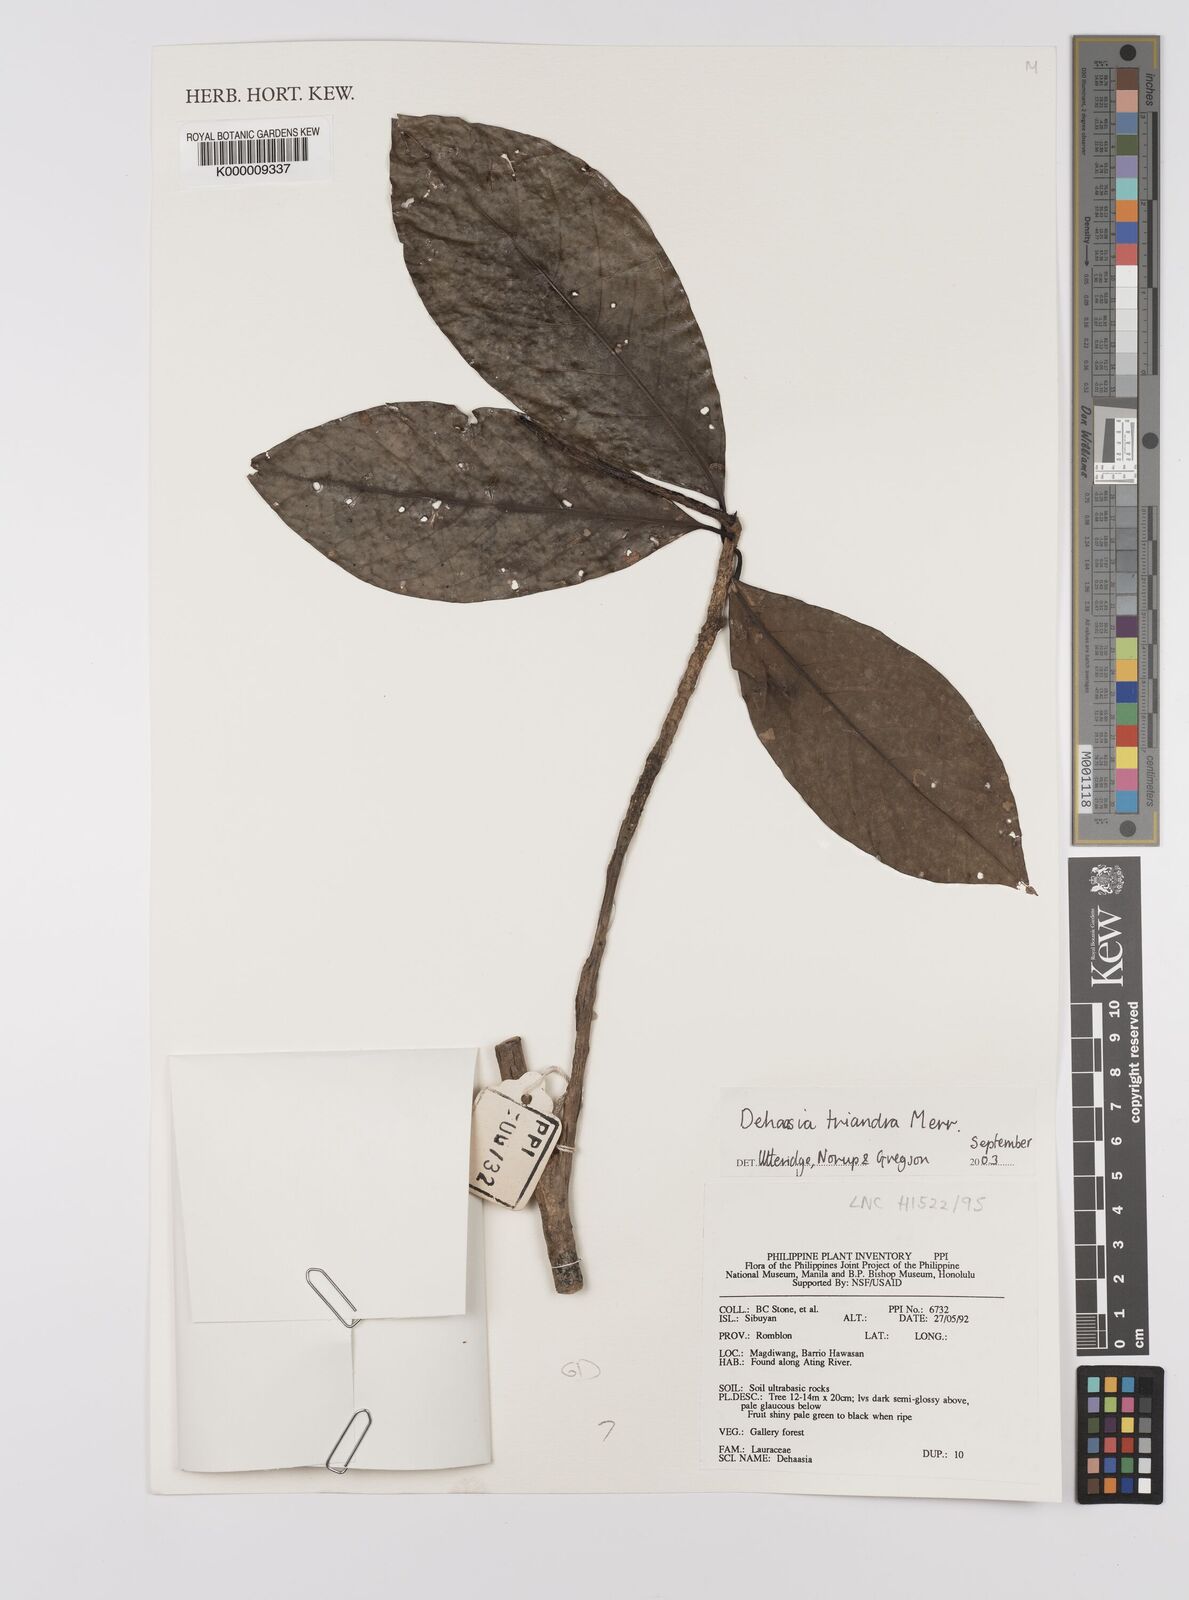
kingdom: Plantae
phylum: Tracheophyta
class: Magnoliopsida
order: Laurales
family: Lauraceae
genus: Dehaasia
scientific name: Dehaasia incrassata
